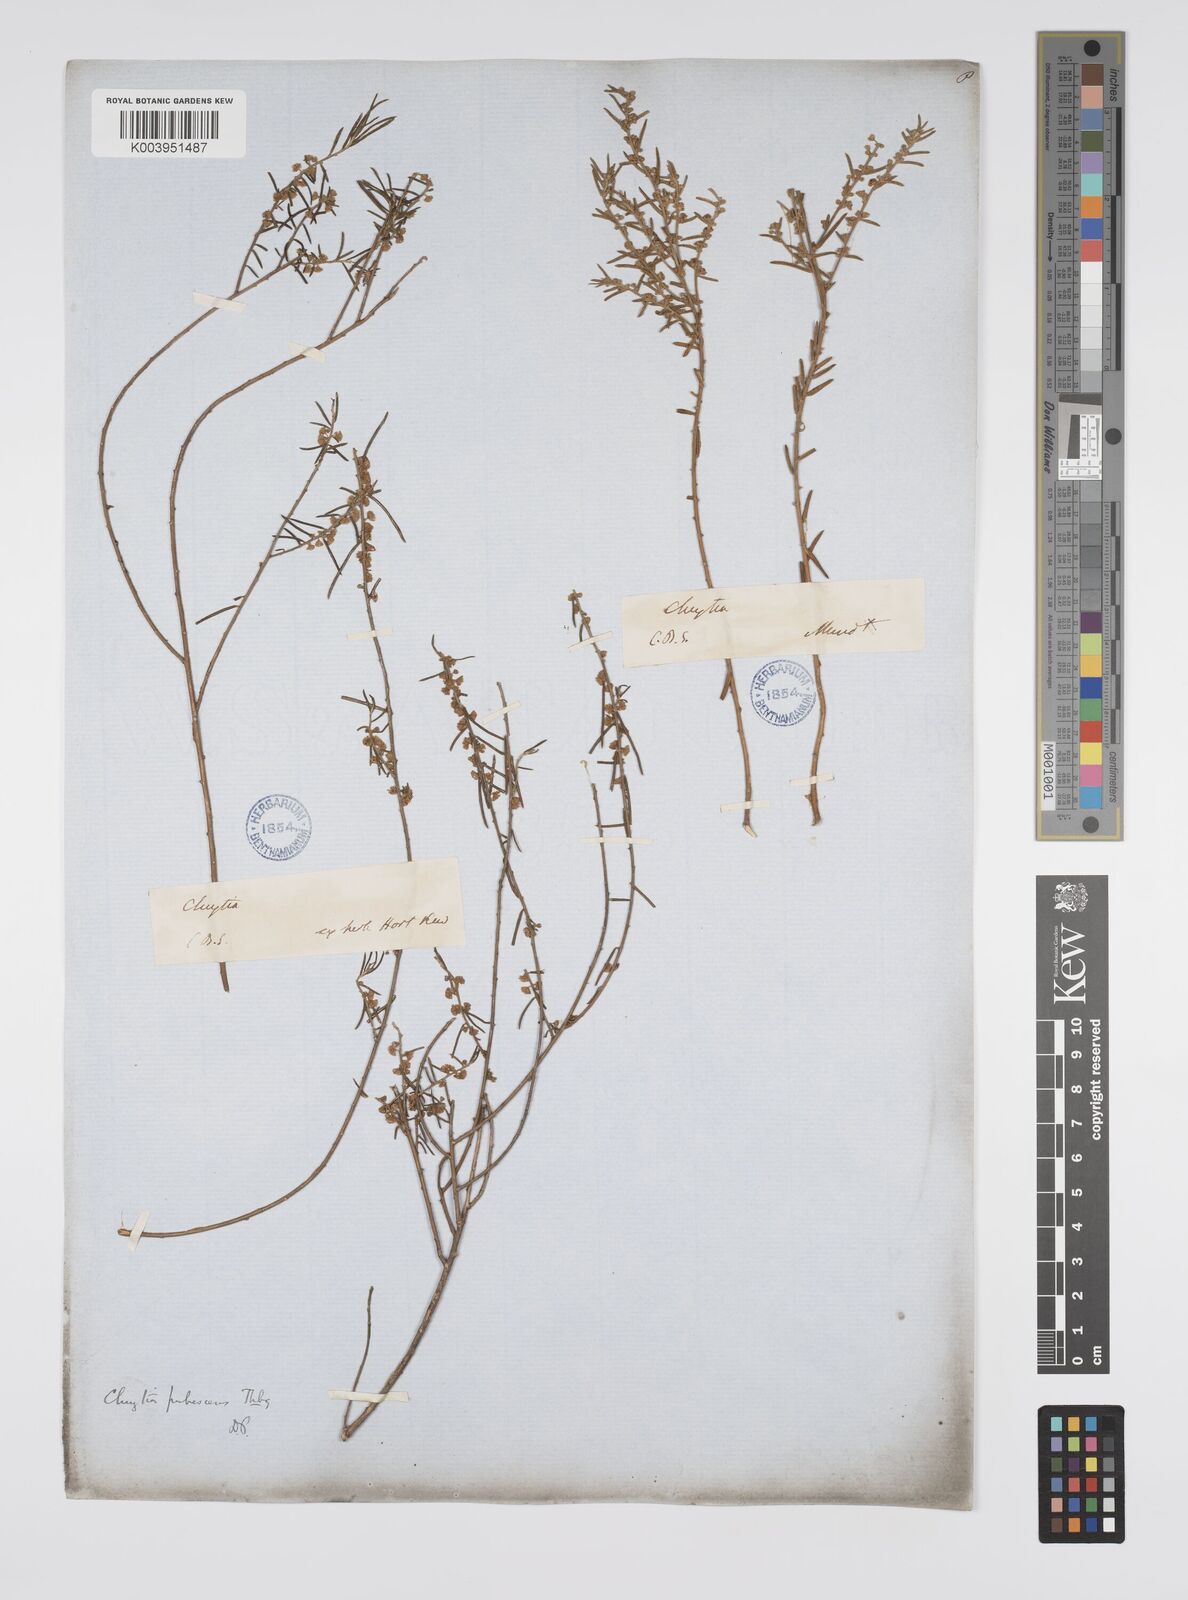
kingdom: Plantae
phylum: Tracheophyta
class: Magnoliopsida
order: Malpighiales
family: Peraceae
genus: Clutia
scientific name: Clutia
